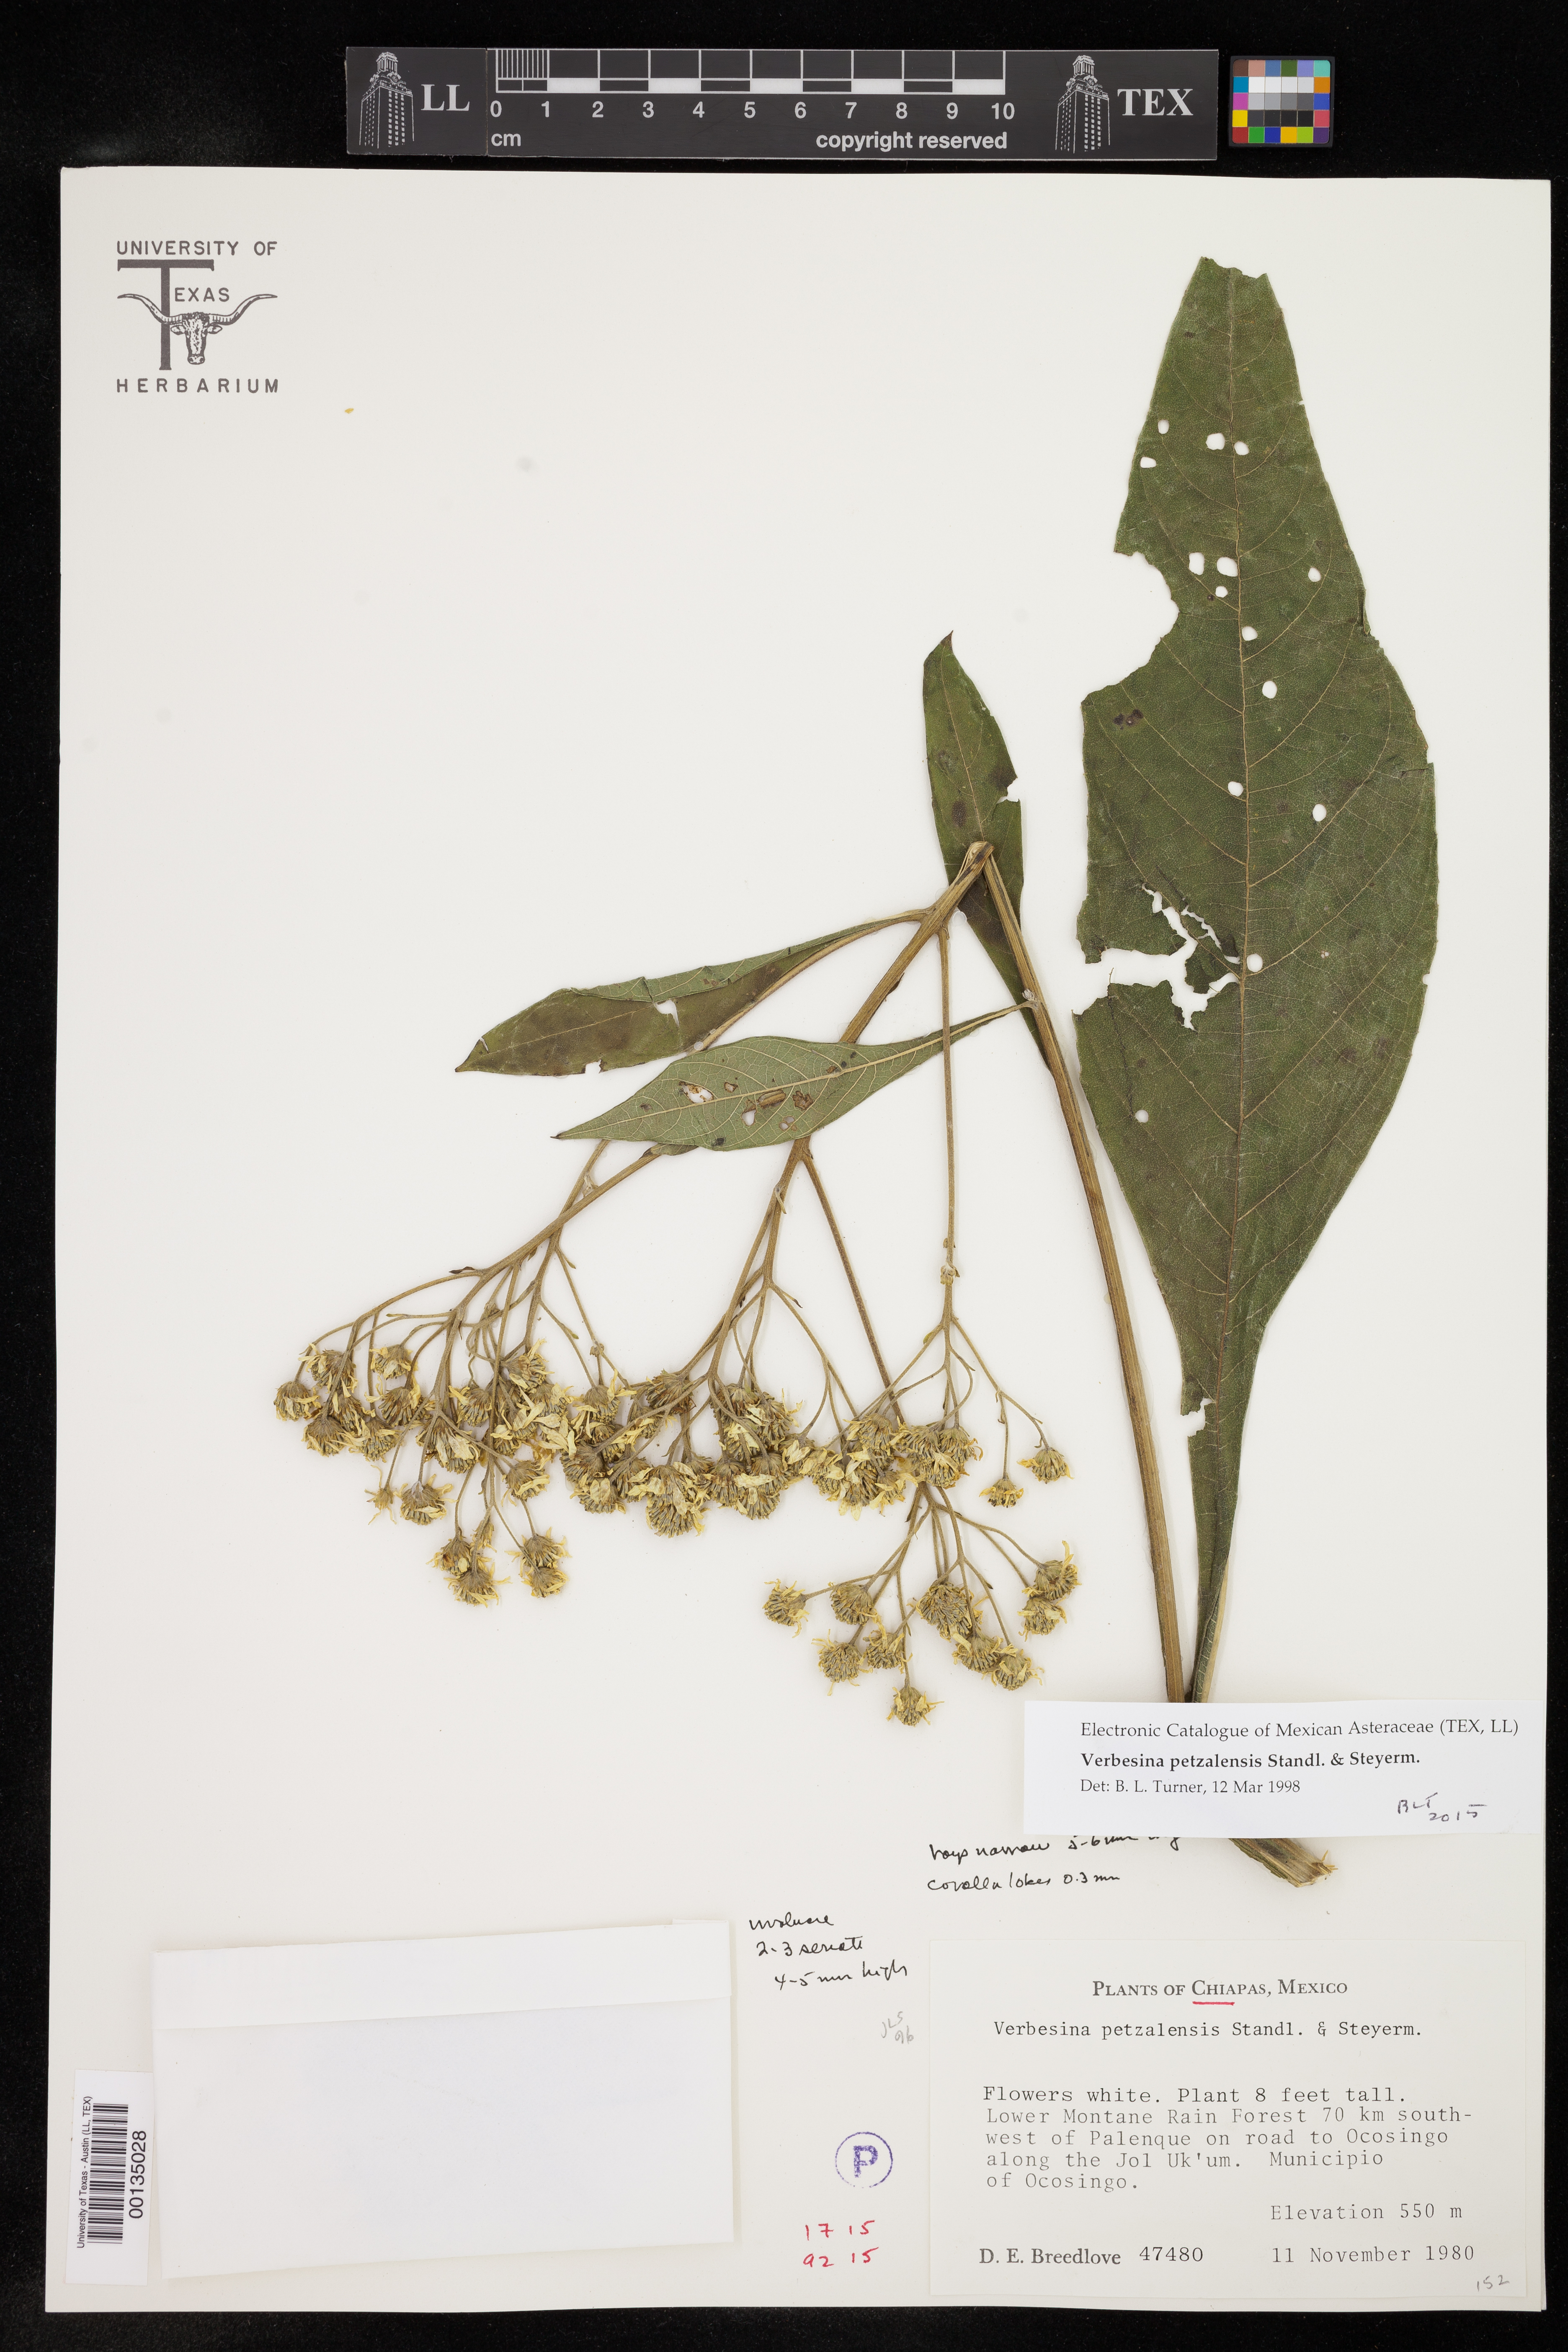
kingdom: Plantae
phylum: Tracheophyta
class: Magnoliopsida
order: Asterales
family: Asteraceae
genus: Verbesina
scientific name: Verbesina petzalensis
